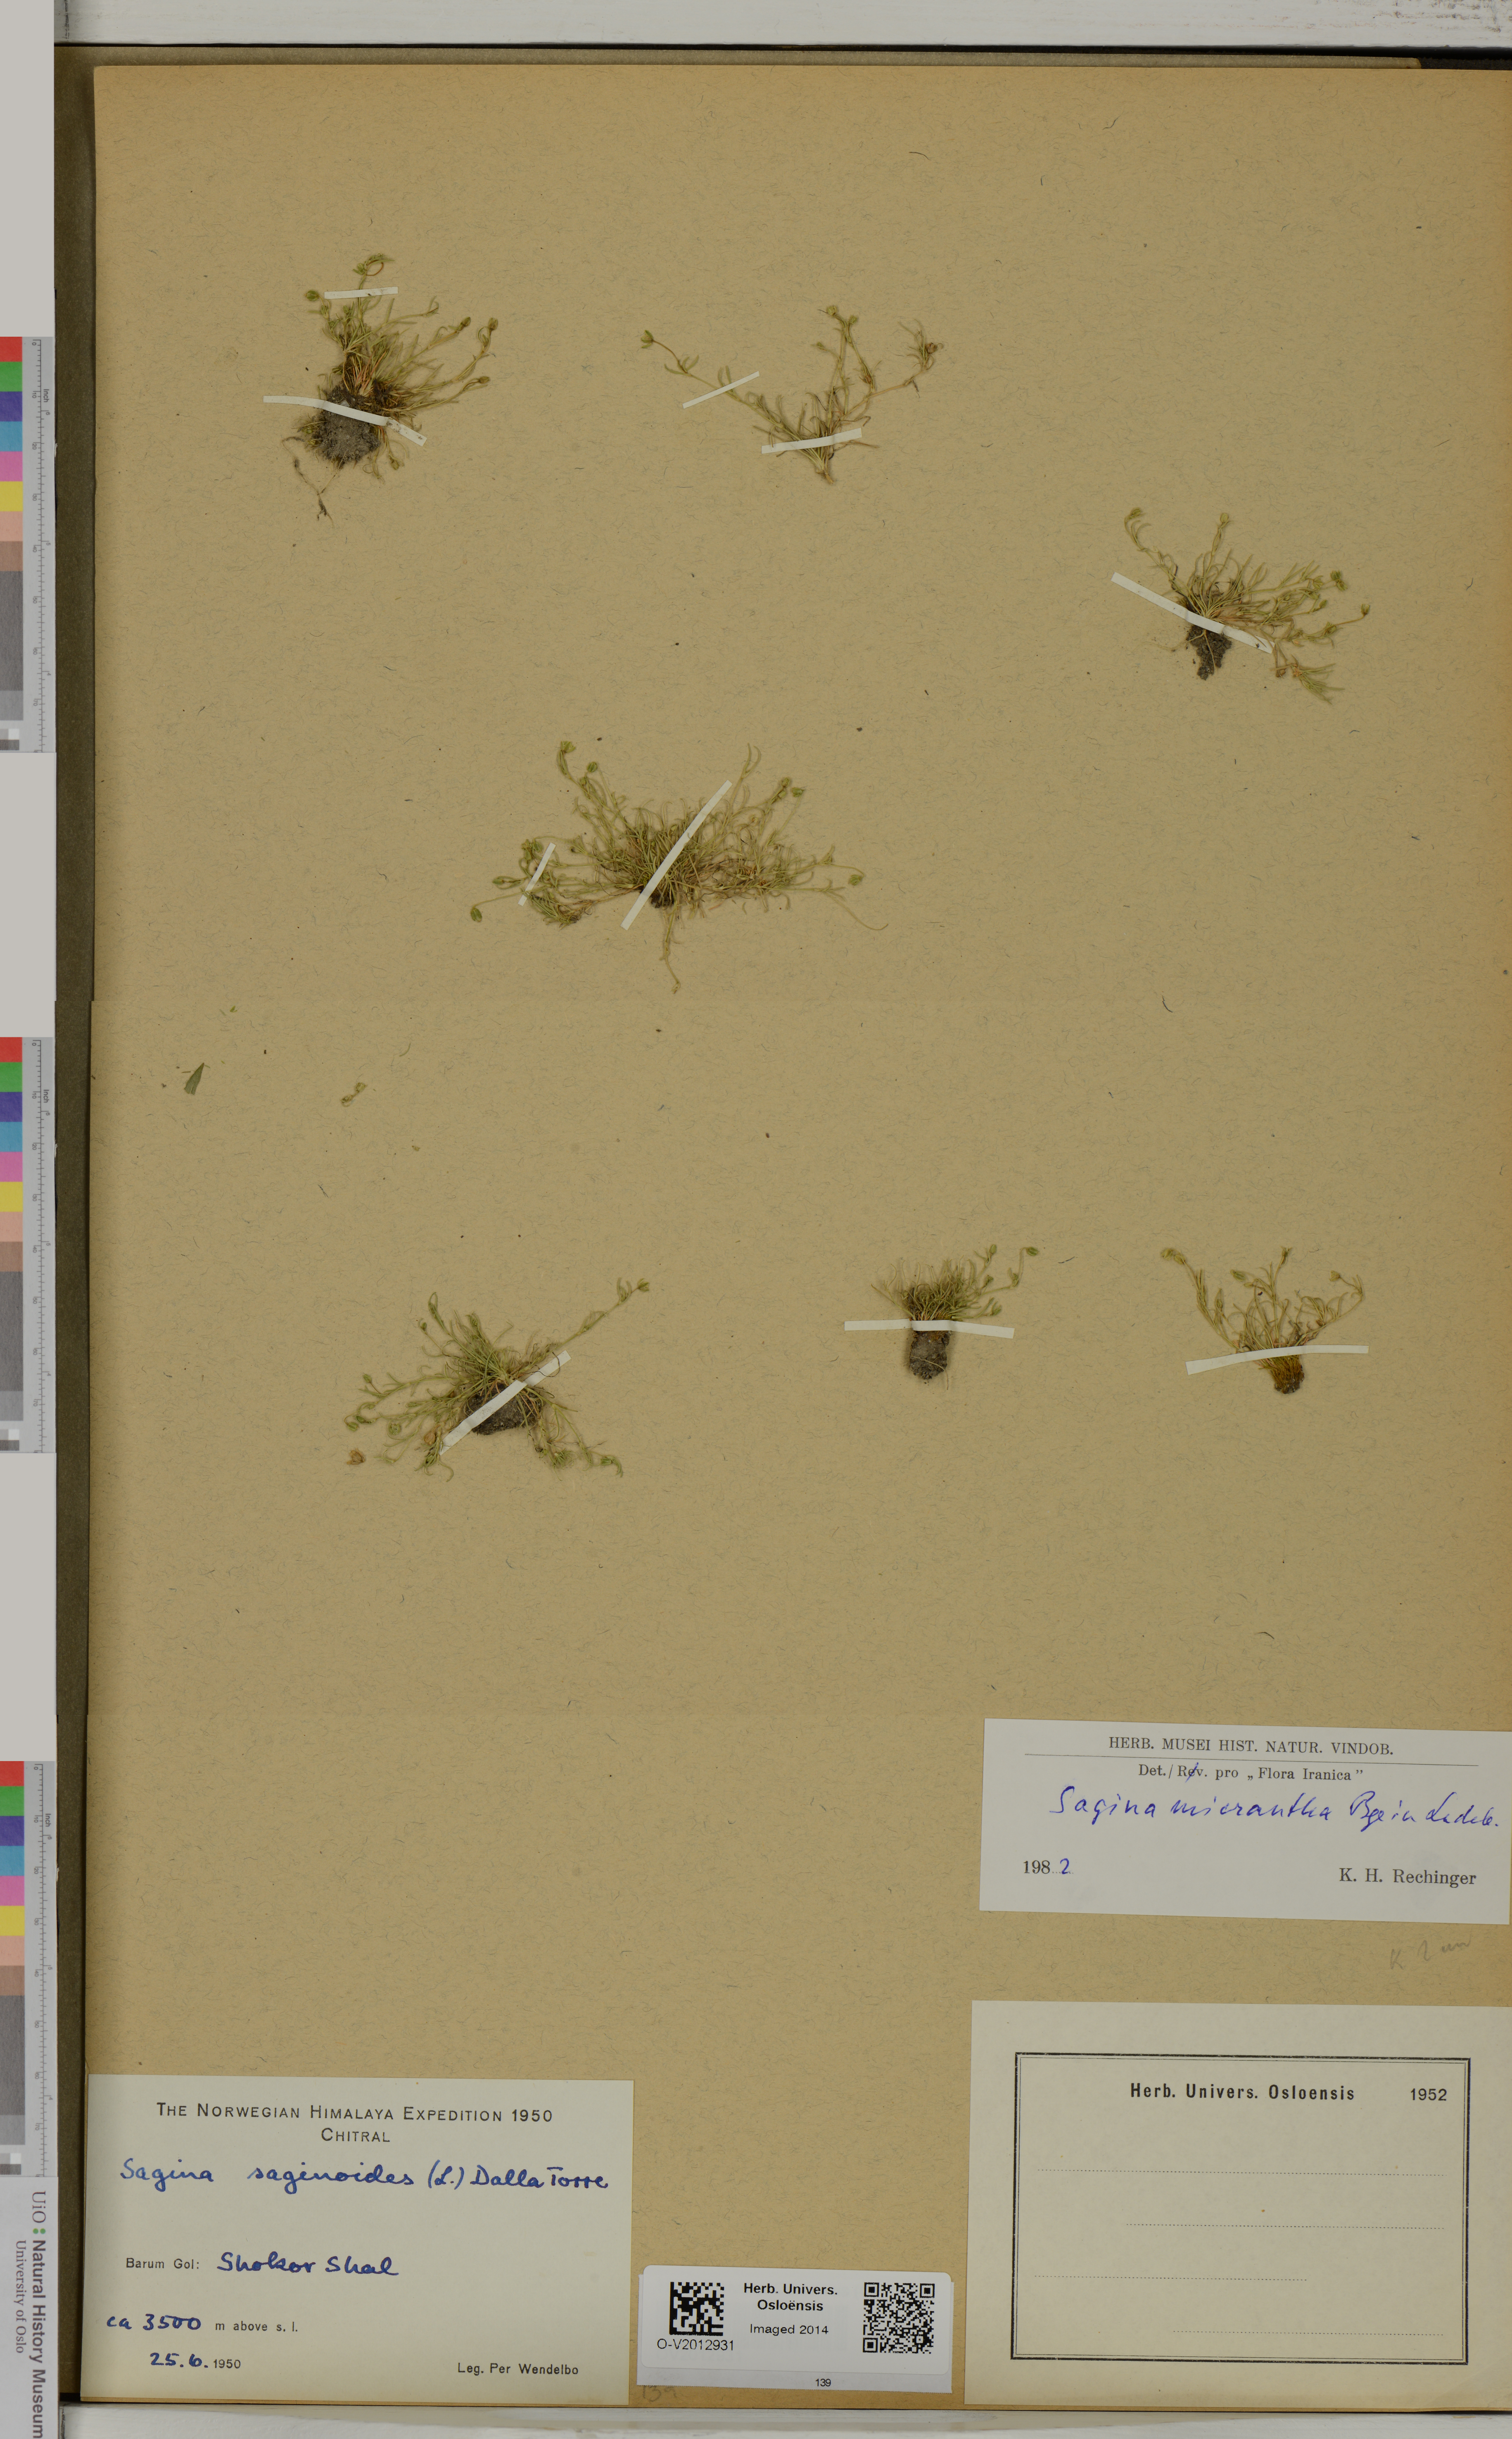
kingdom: Plantae
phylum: Tracheophyta
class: Magnoliopsida
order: Caryophyllales
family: Caryophyllaceae
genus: Sagina
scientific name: Sagina micrantha
